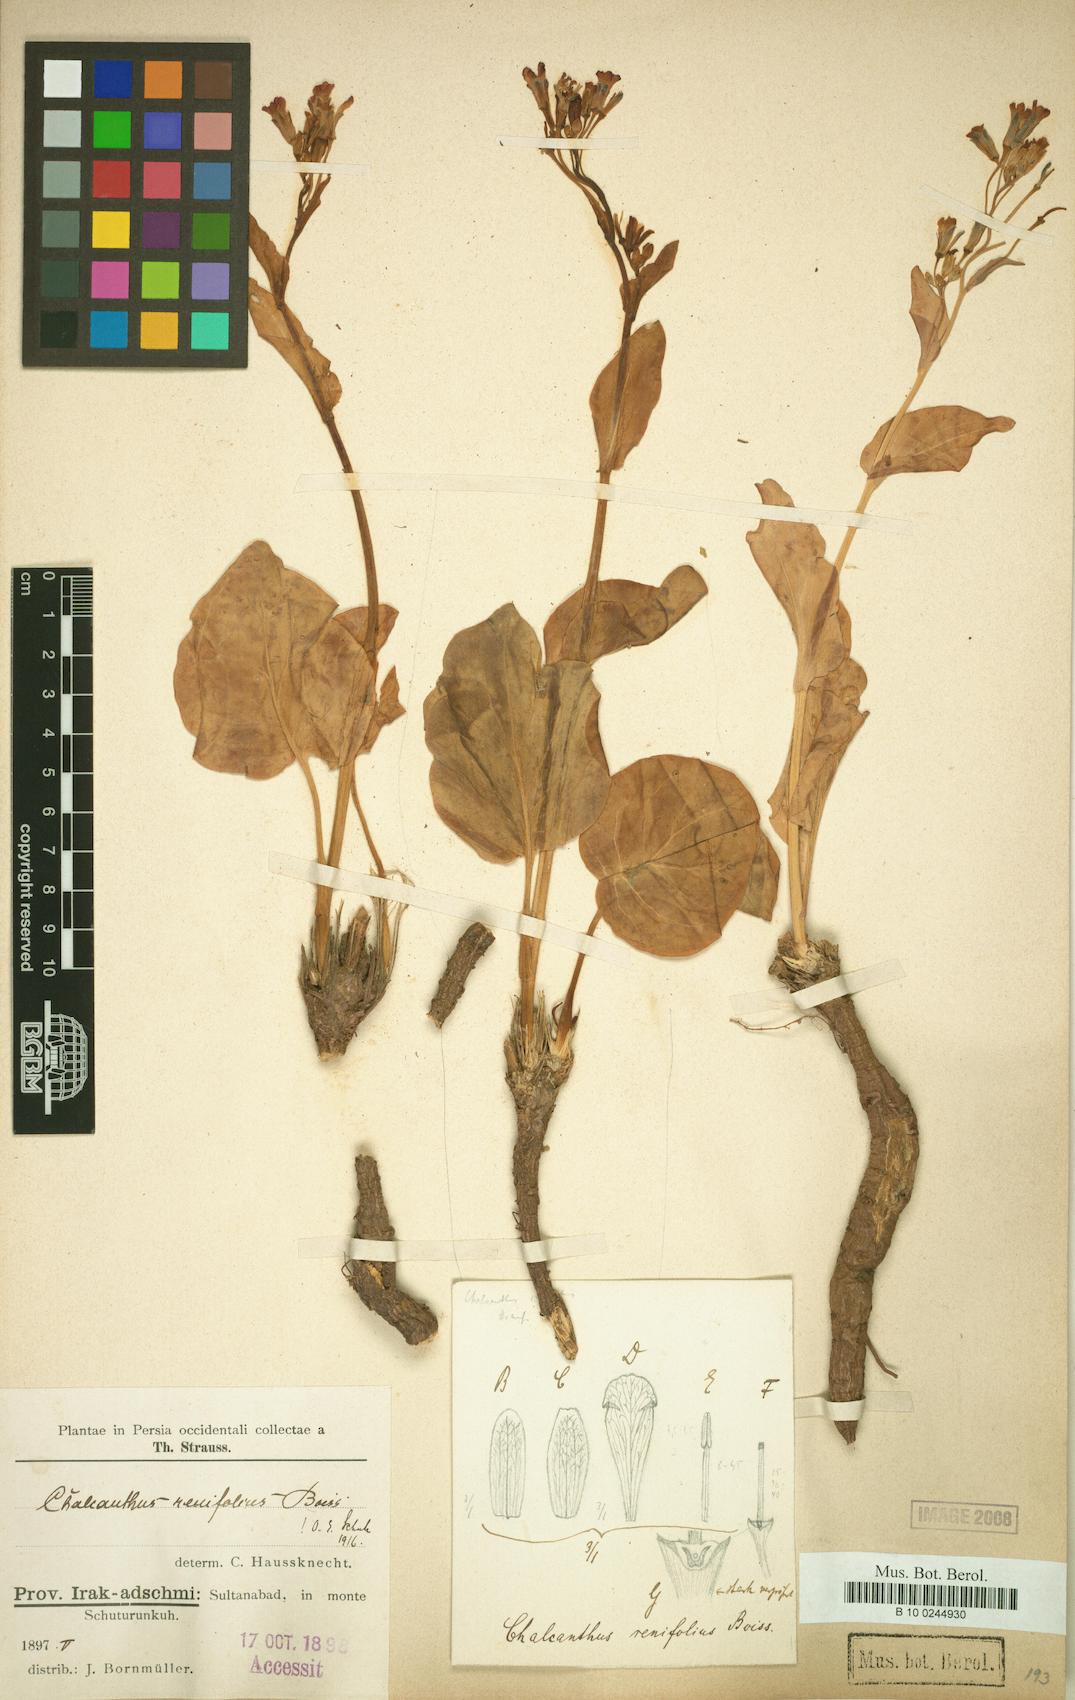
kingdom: Plantae
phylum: Tracheophyta
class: Magnoliopsida
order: Brassicales
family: Brassicaceae
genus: Eutrema
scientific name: Eutrema renifolium
